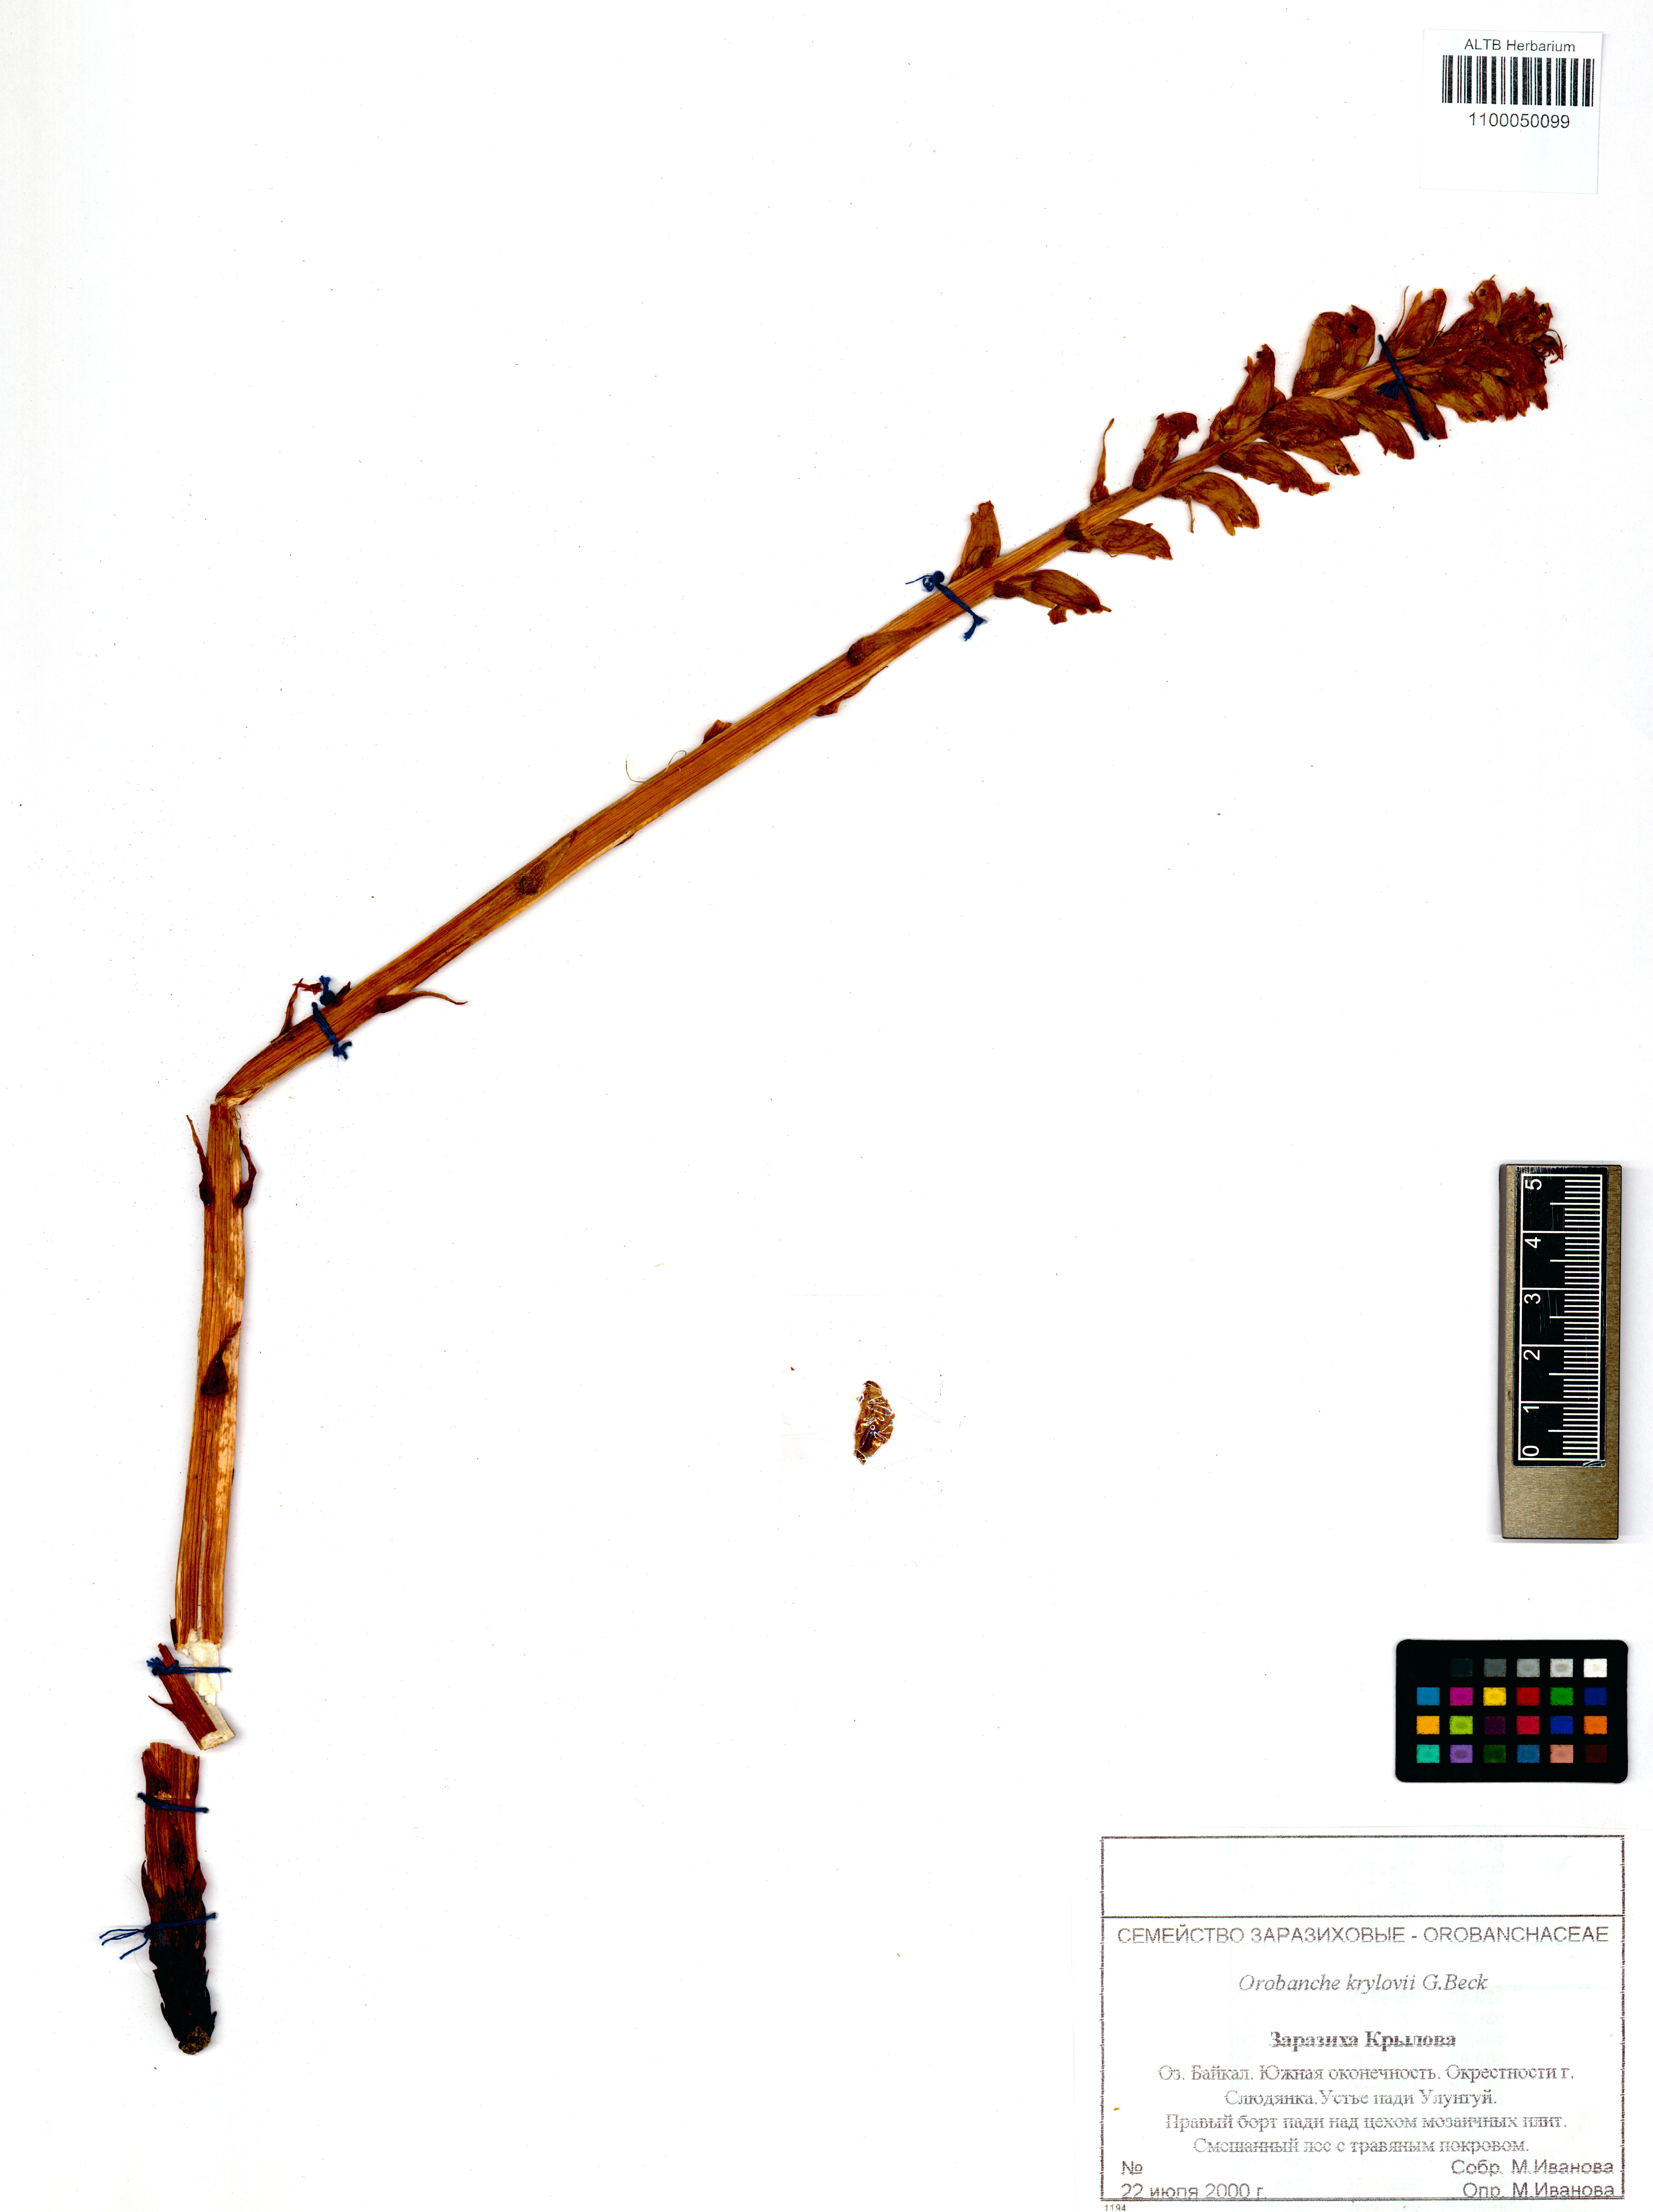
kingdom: Plantae
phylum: Tracheophyta
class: Magnoliopsida
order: Lamiales
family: Orobanchaceae
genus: Orobanche
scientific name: Orobanche krylowii
